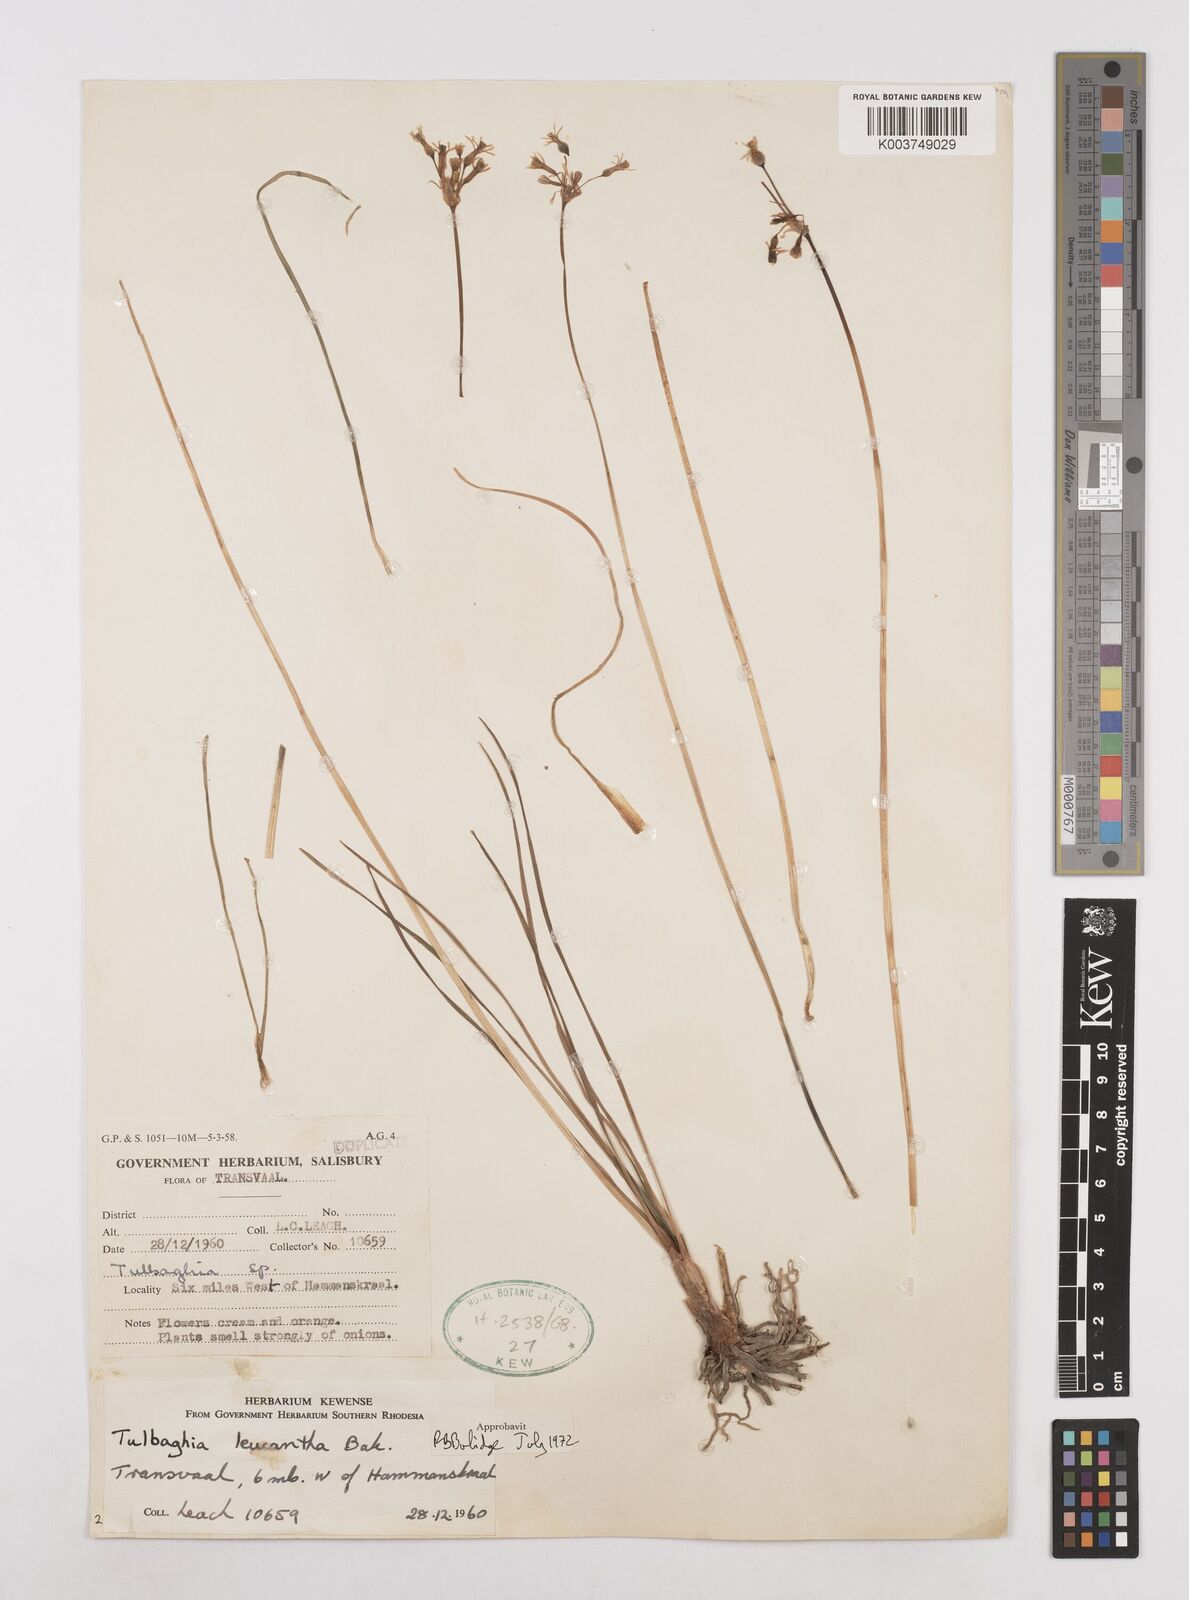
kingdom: Plantae
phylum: Tracheophyta
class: Liliopsida
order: Asparagales
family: Amaryllidaceae
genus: Tulbaghia
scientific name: Tulbaghia leucantha
